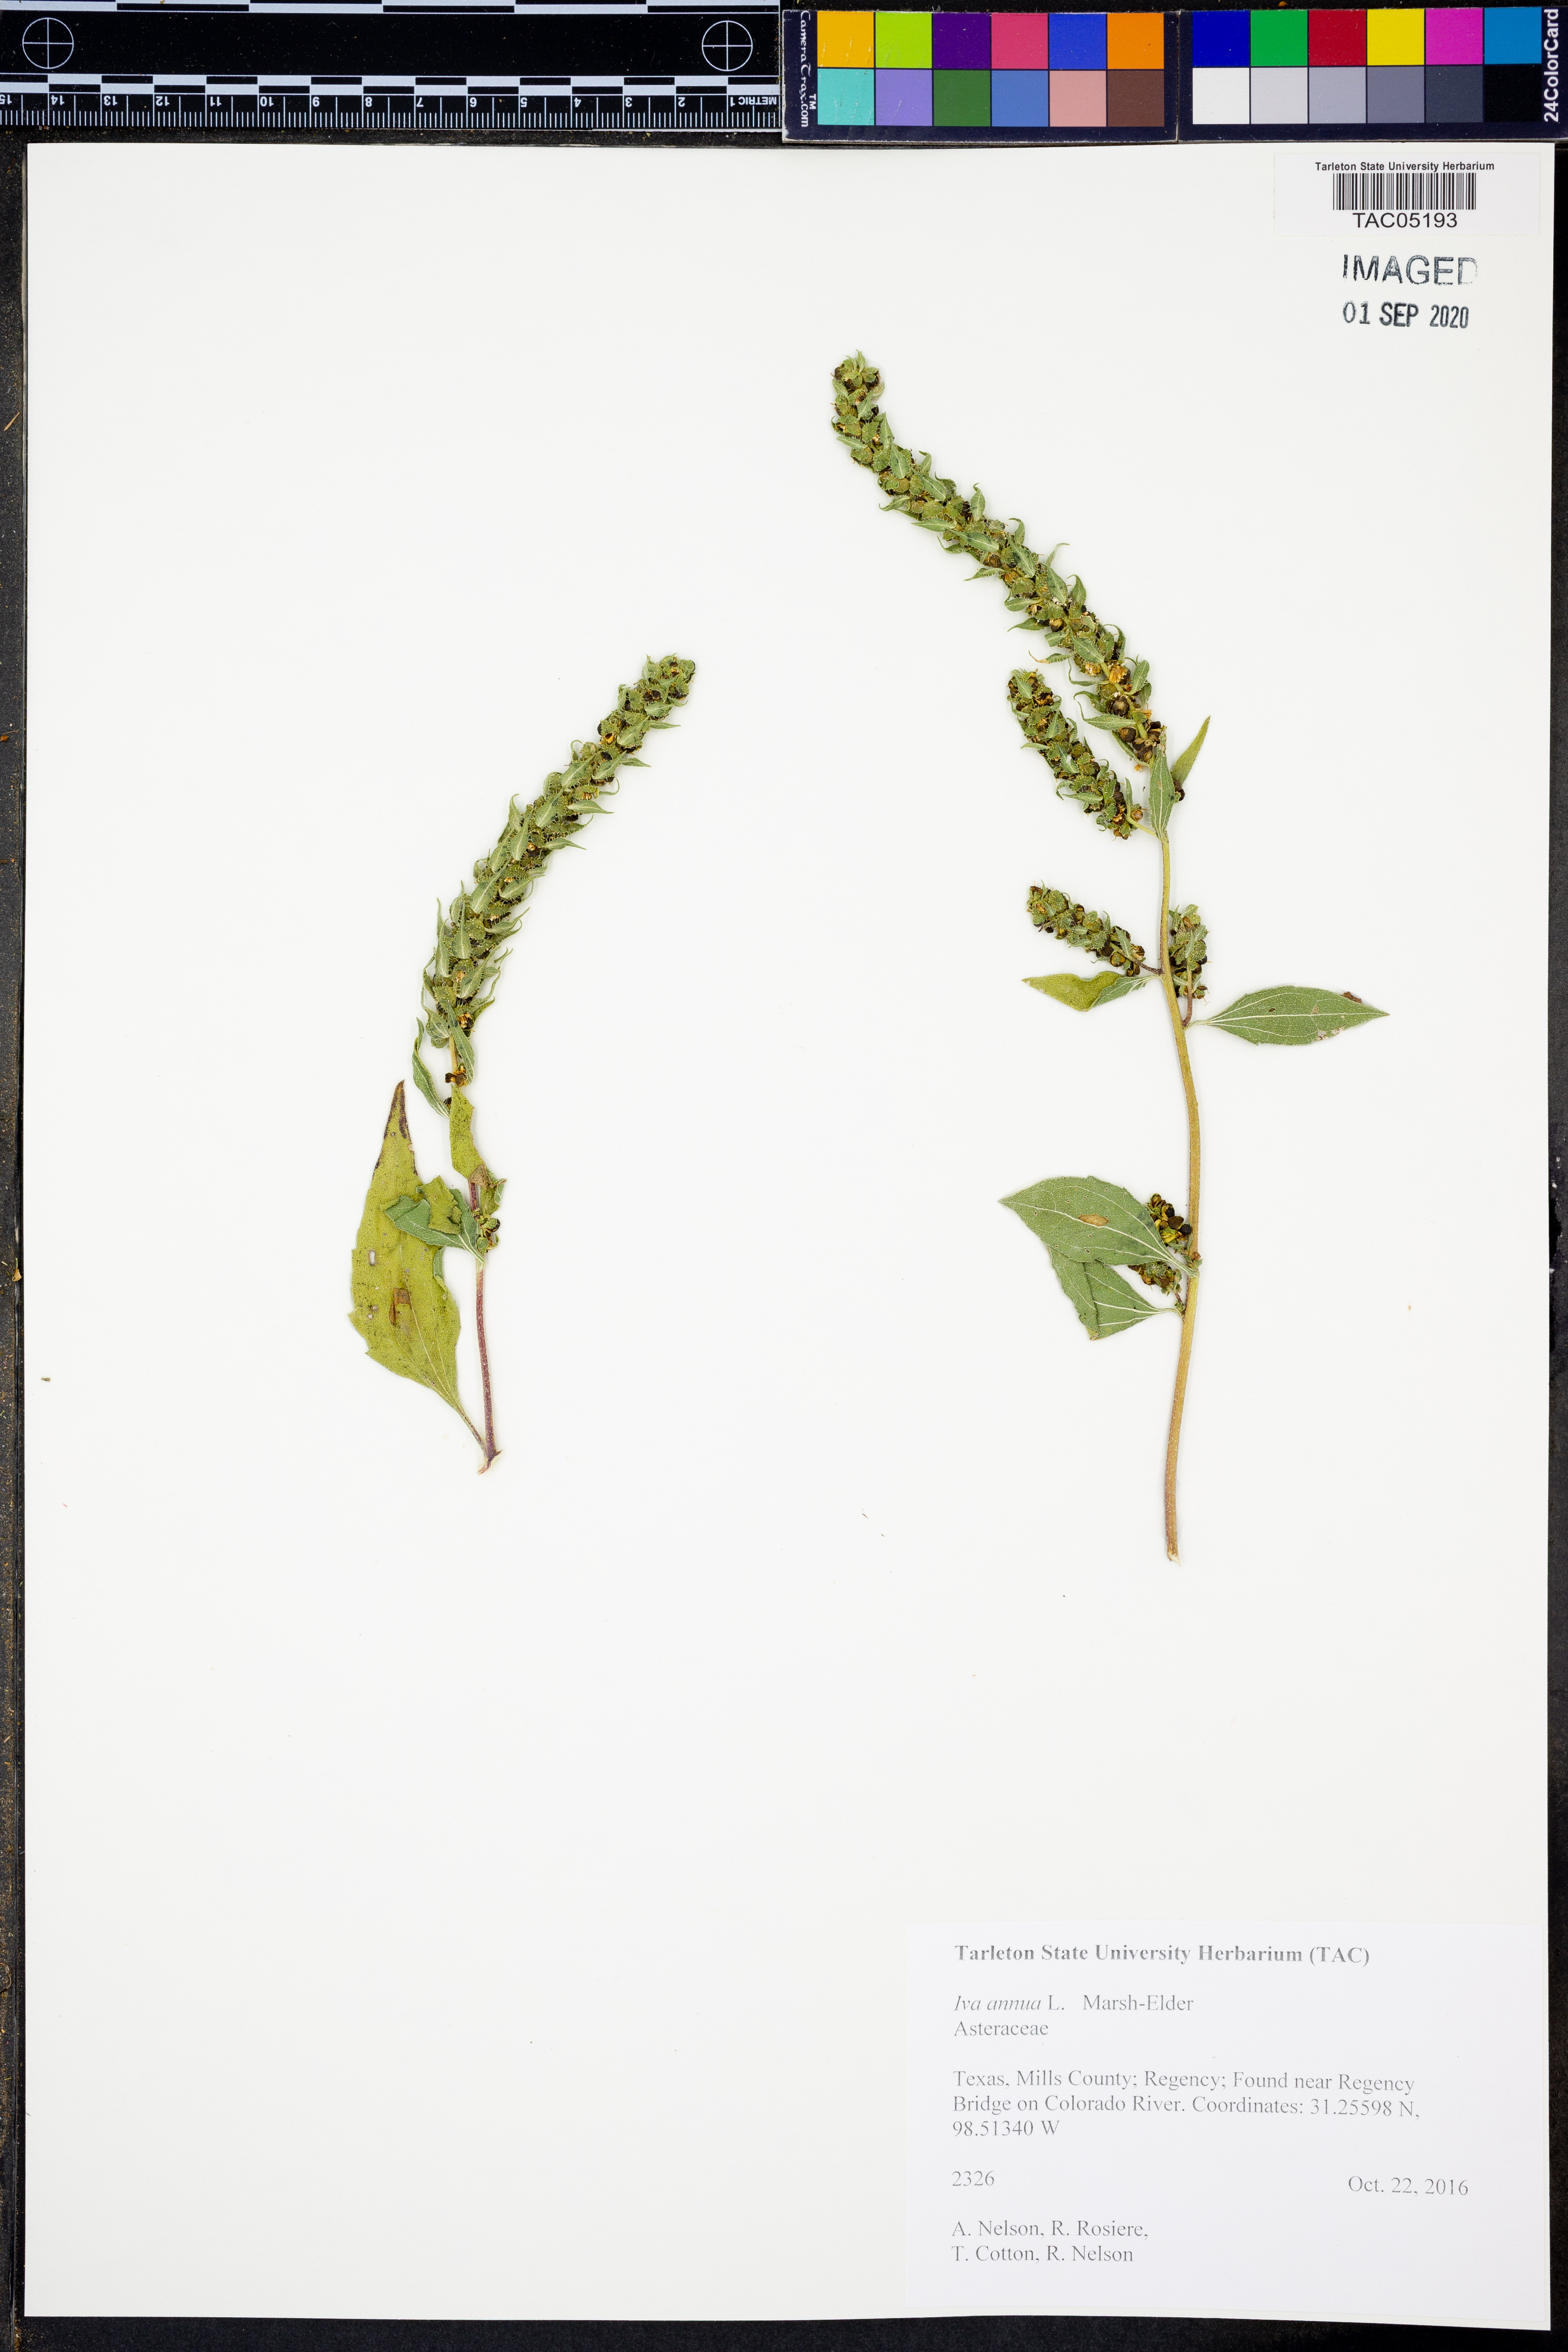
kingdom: Plantae
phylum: Tracheophyta
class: Magnoliopsida
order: Asterales
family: Asteraceae
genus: Iva
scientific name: Iva annua
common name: Marsh-elder
